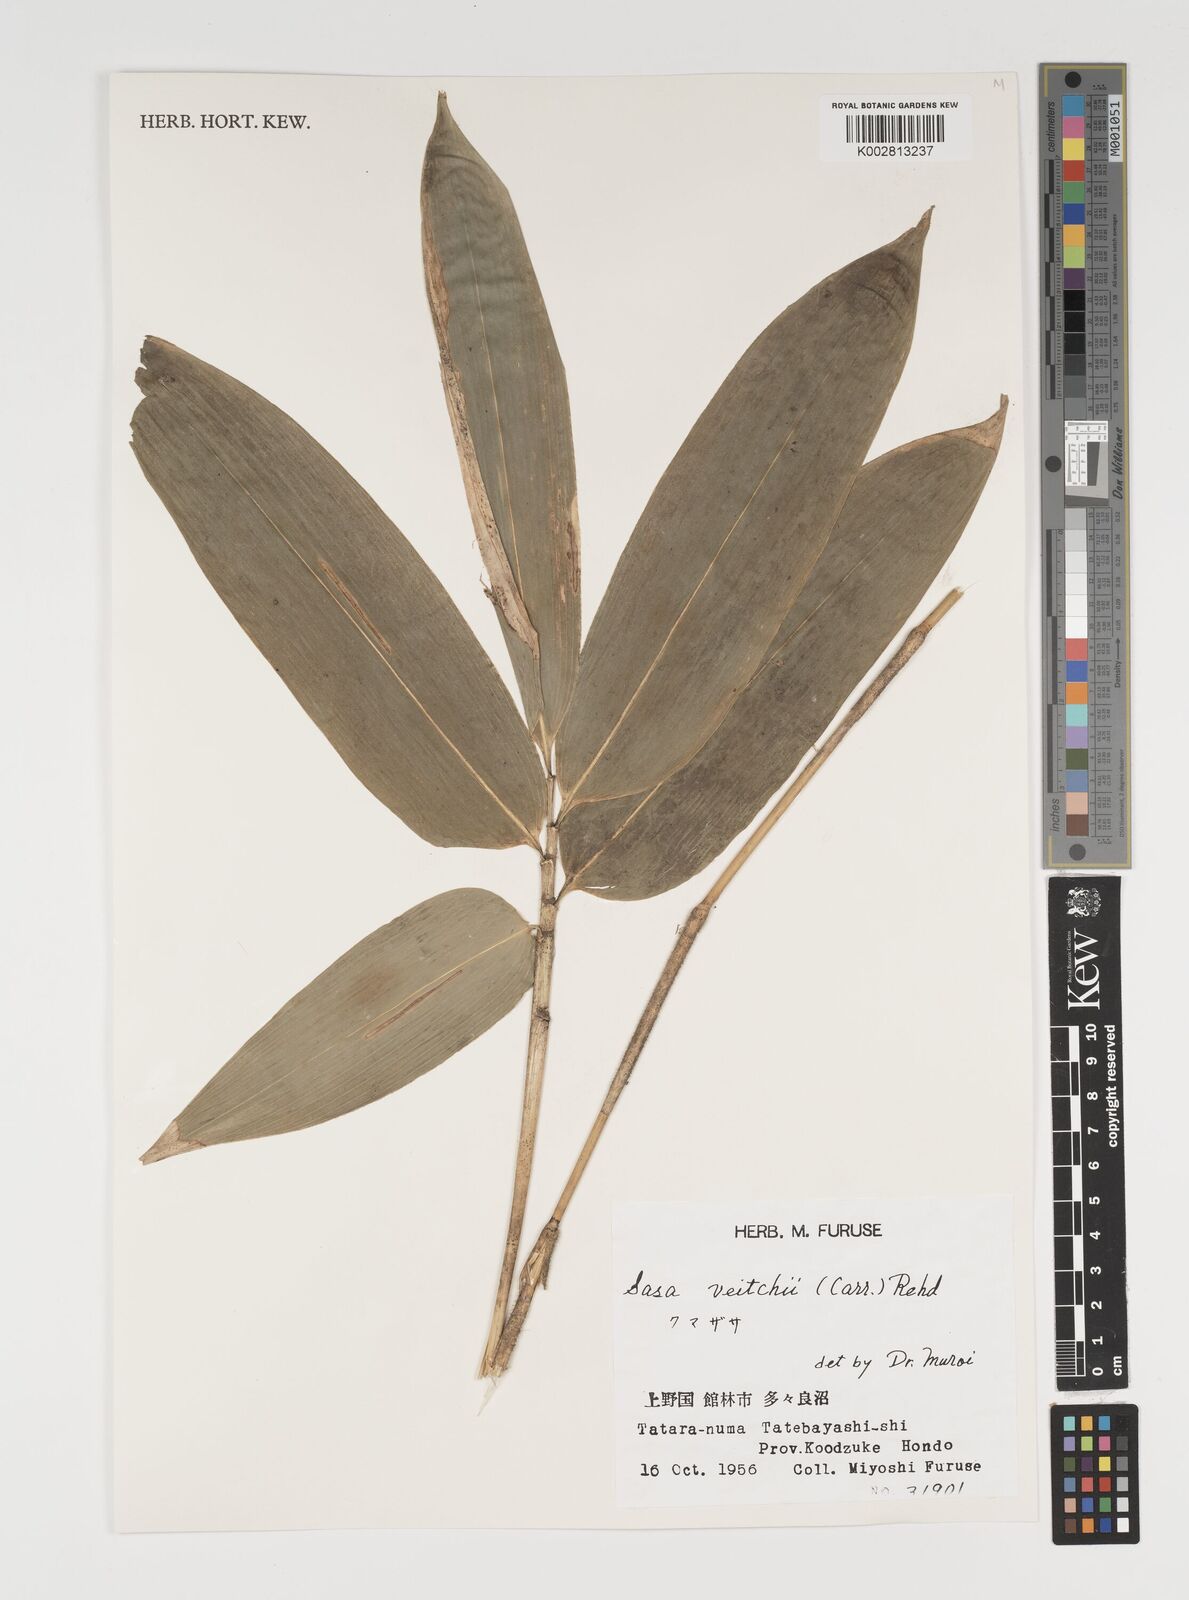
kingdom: Plantae
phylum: Tracheophyta
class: Liliopsida
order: Poales
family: Poaceae
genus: Sasa
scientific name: Sasa veitchii
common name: Veitch's bamboo
